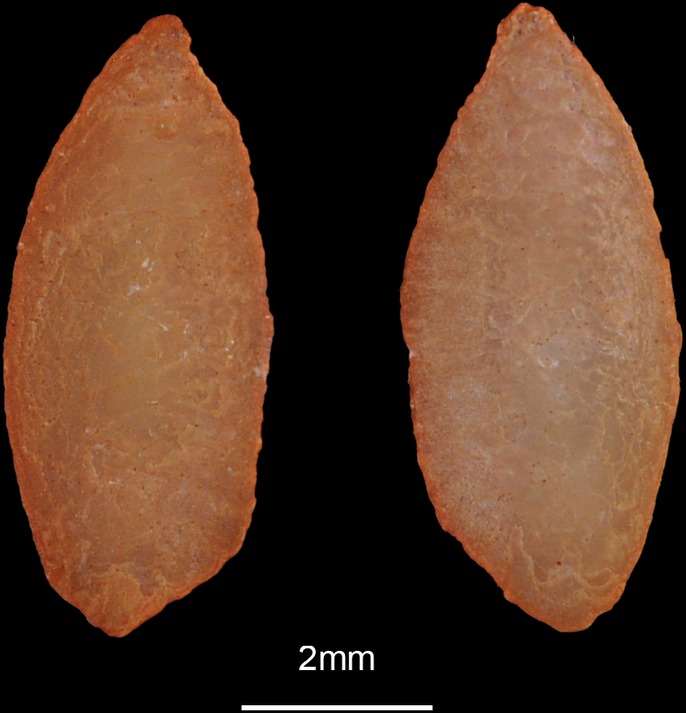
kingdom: Animalia
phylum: Chordata
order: Perciformes
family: Trachinidae
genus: Trachinus
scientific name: Trachinus draco
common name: Greater weever
